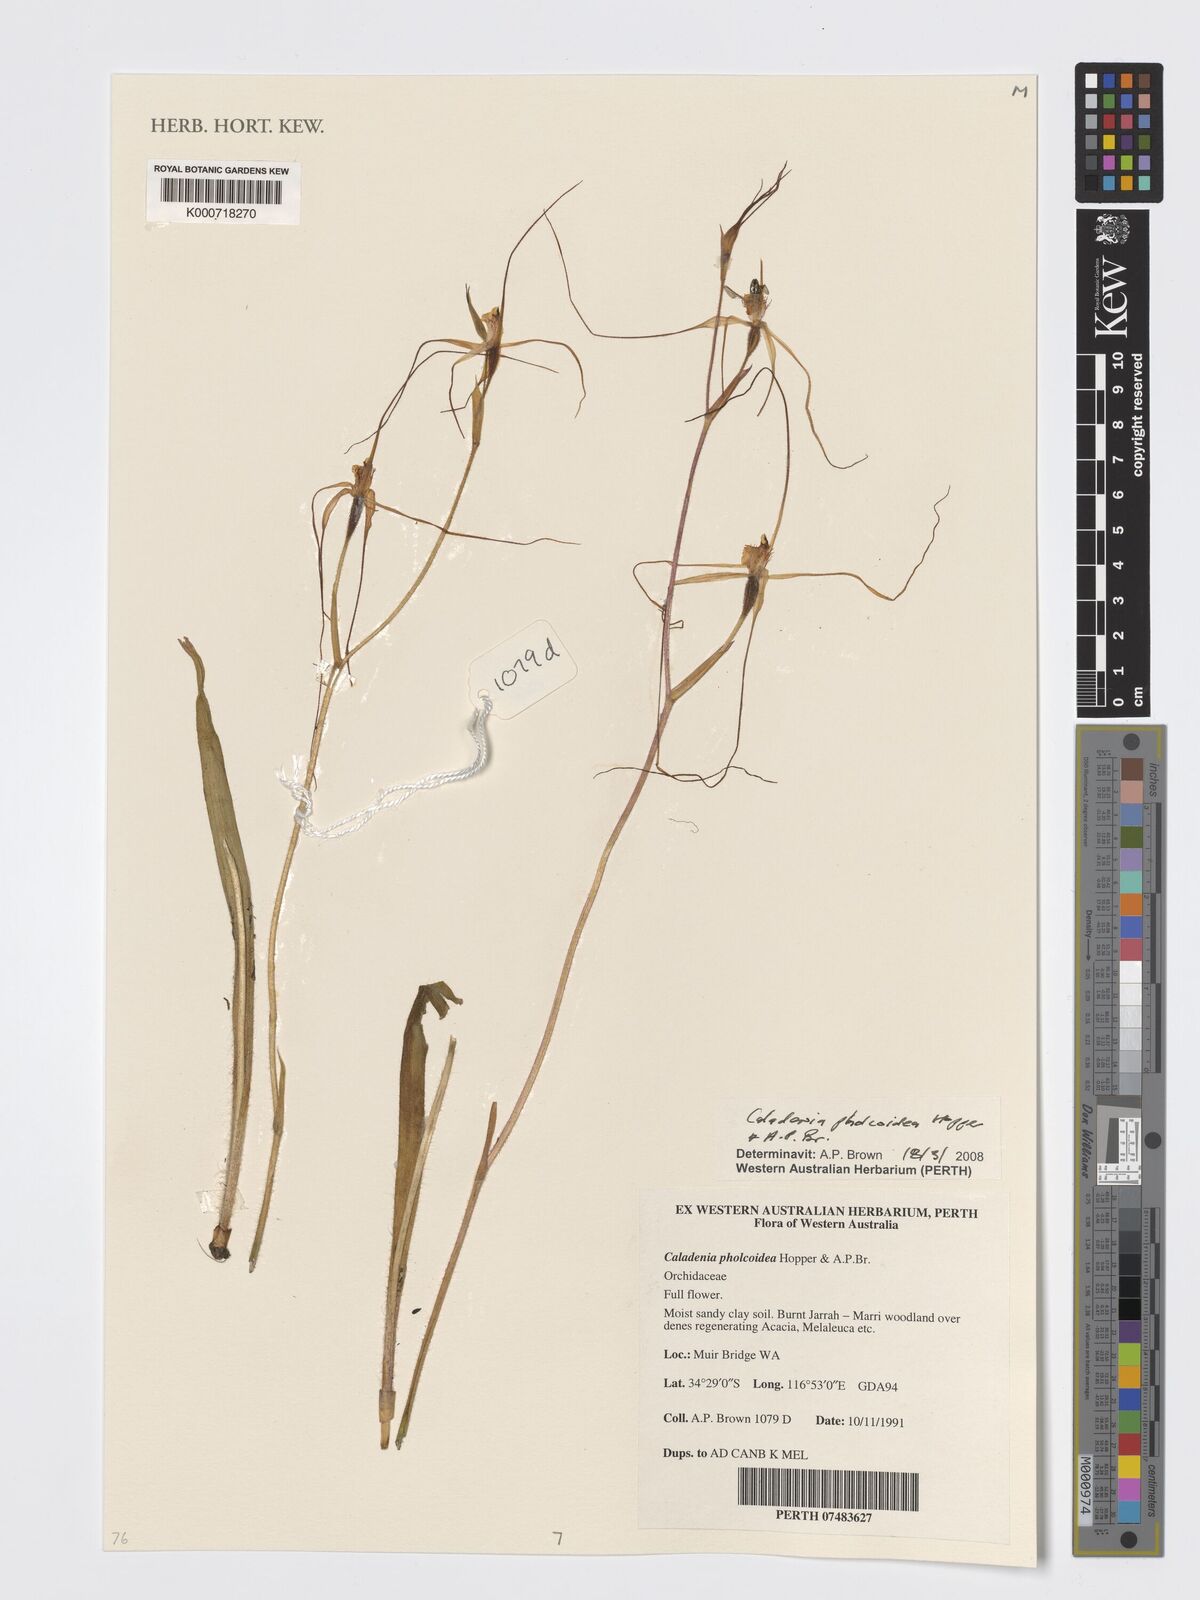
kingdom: Plantae
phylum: Tracheophyta
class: Liliopsida
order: Asparagales
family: Orchidaceae
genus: Caladenia
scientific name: Caladenia pholcoidea
